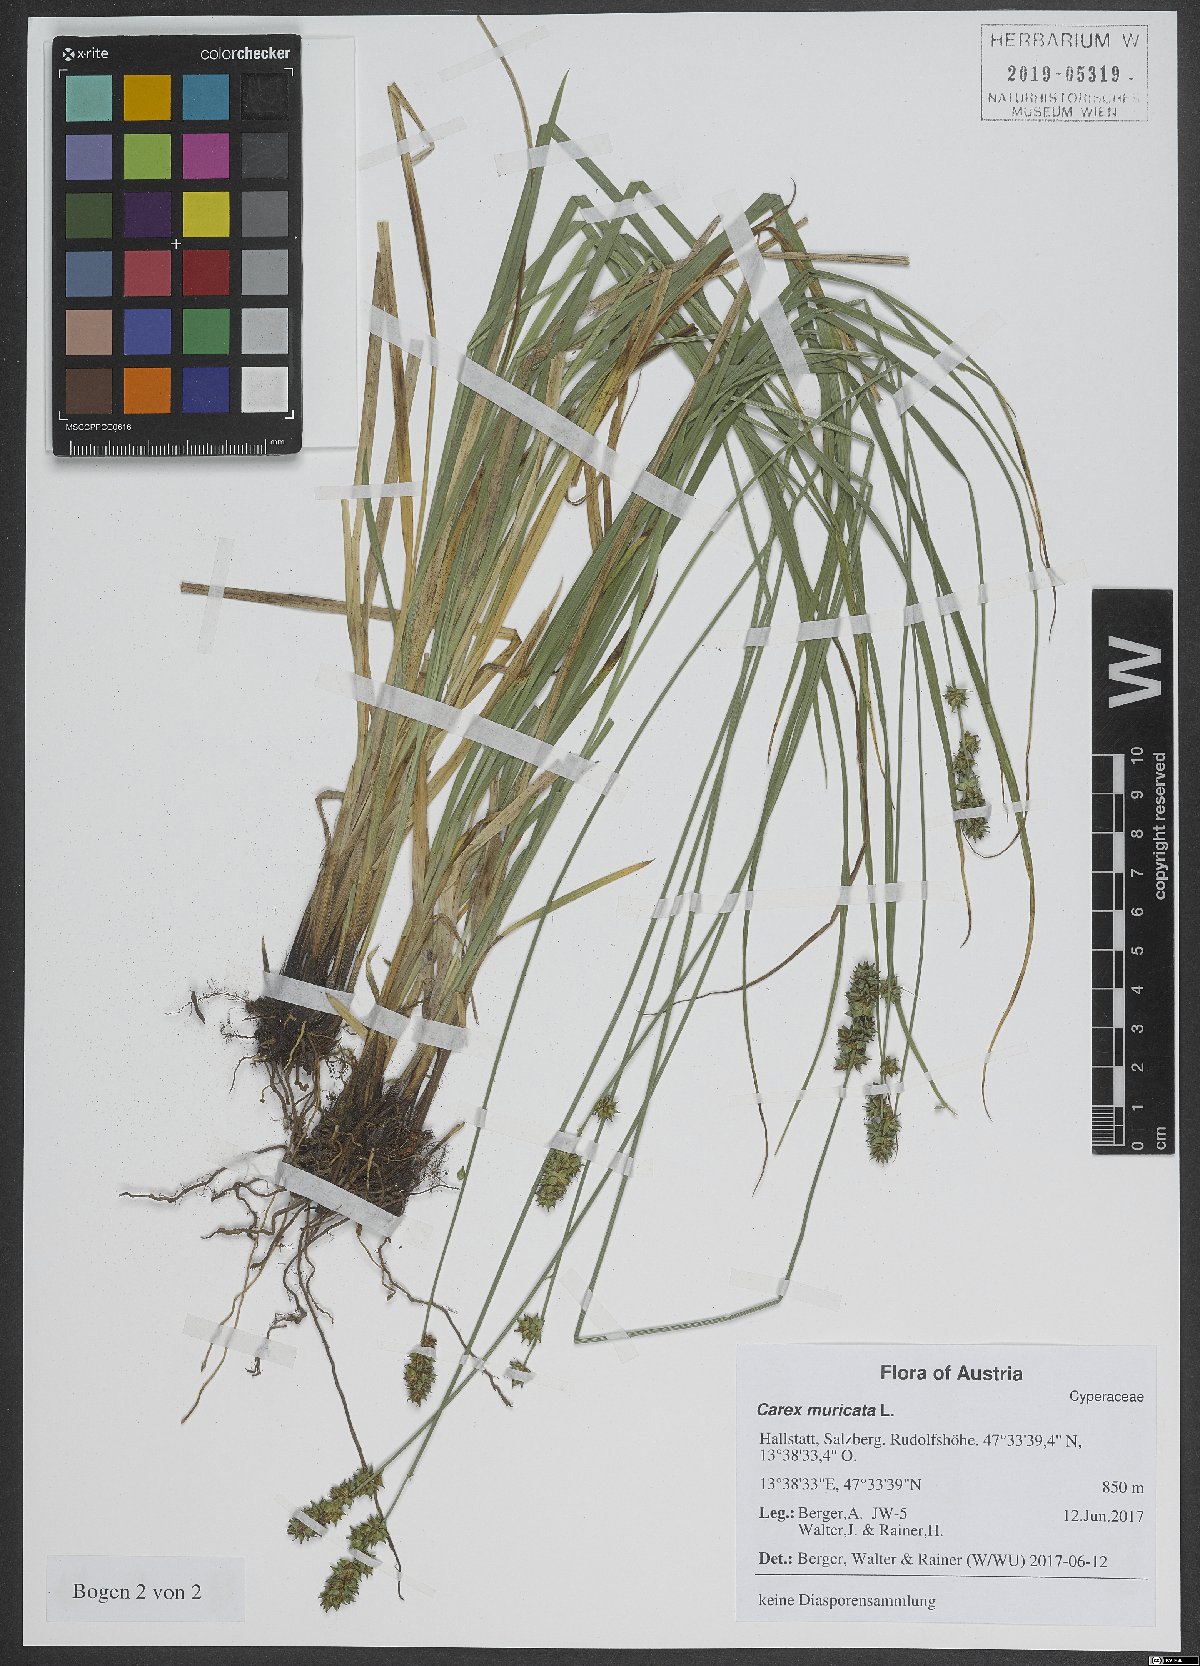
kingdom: Plantae
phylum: Tracheophyta
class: Liliopsida
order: Poales
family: Cyperaceae
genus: Carex
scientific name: Carex muricata
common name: Rough sedge
